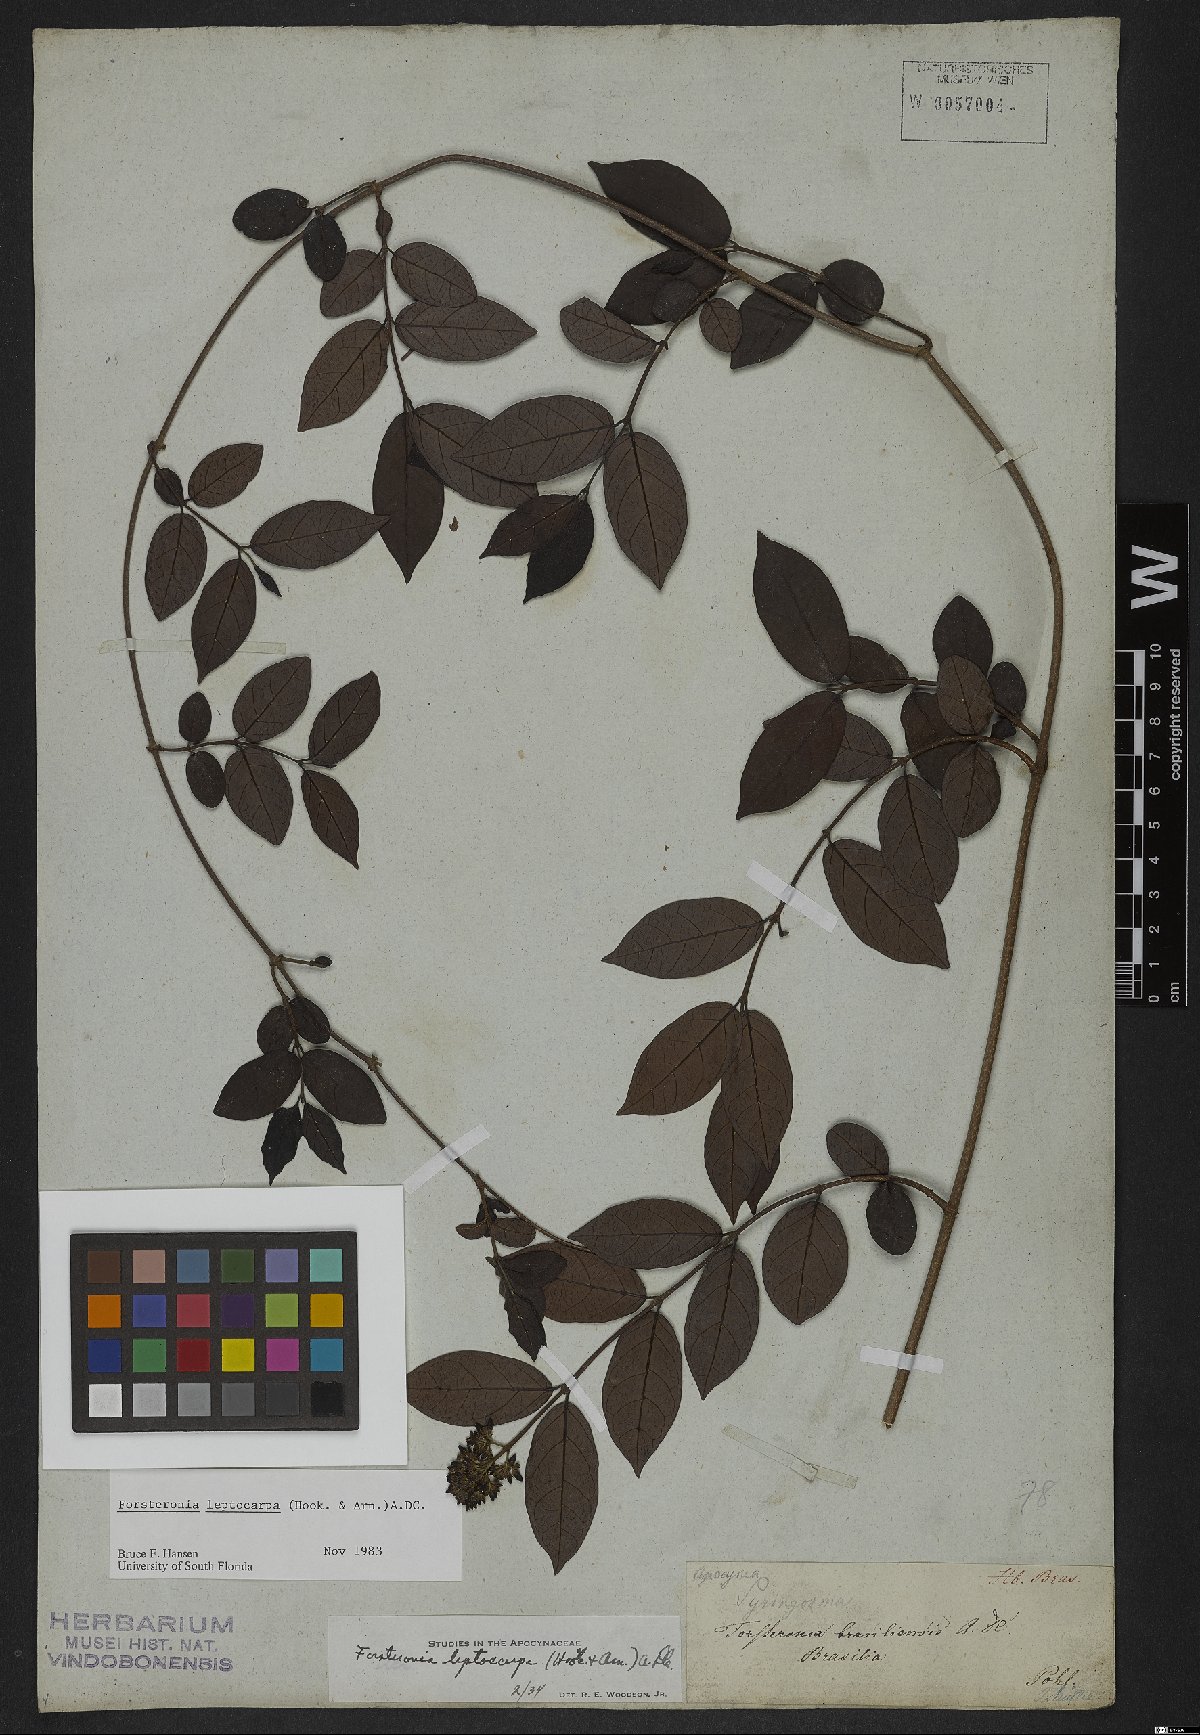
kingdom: Plantae
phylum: Tracheophyta
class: Magnoliopsida
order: Gentianales
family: Apocynaceae
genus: Forsteronia
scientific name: Forsteronia leptocarpa
